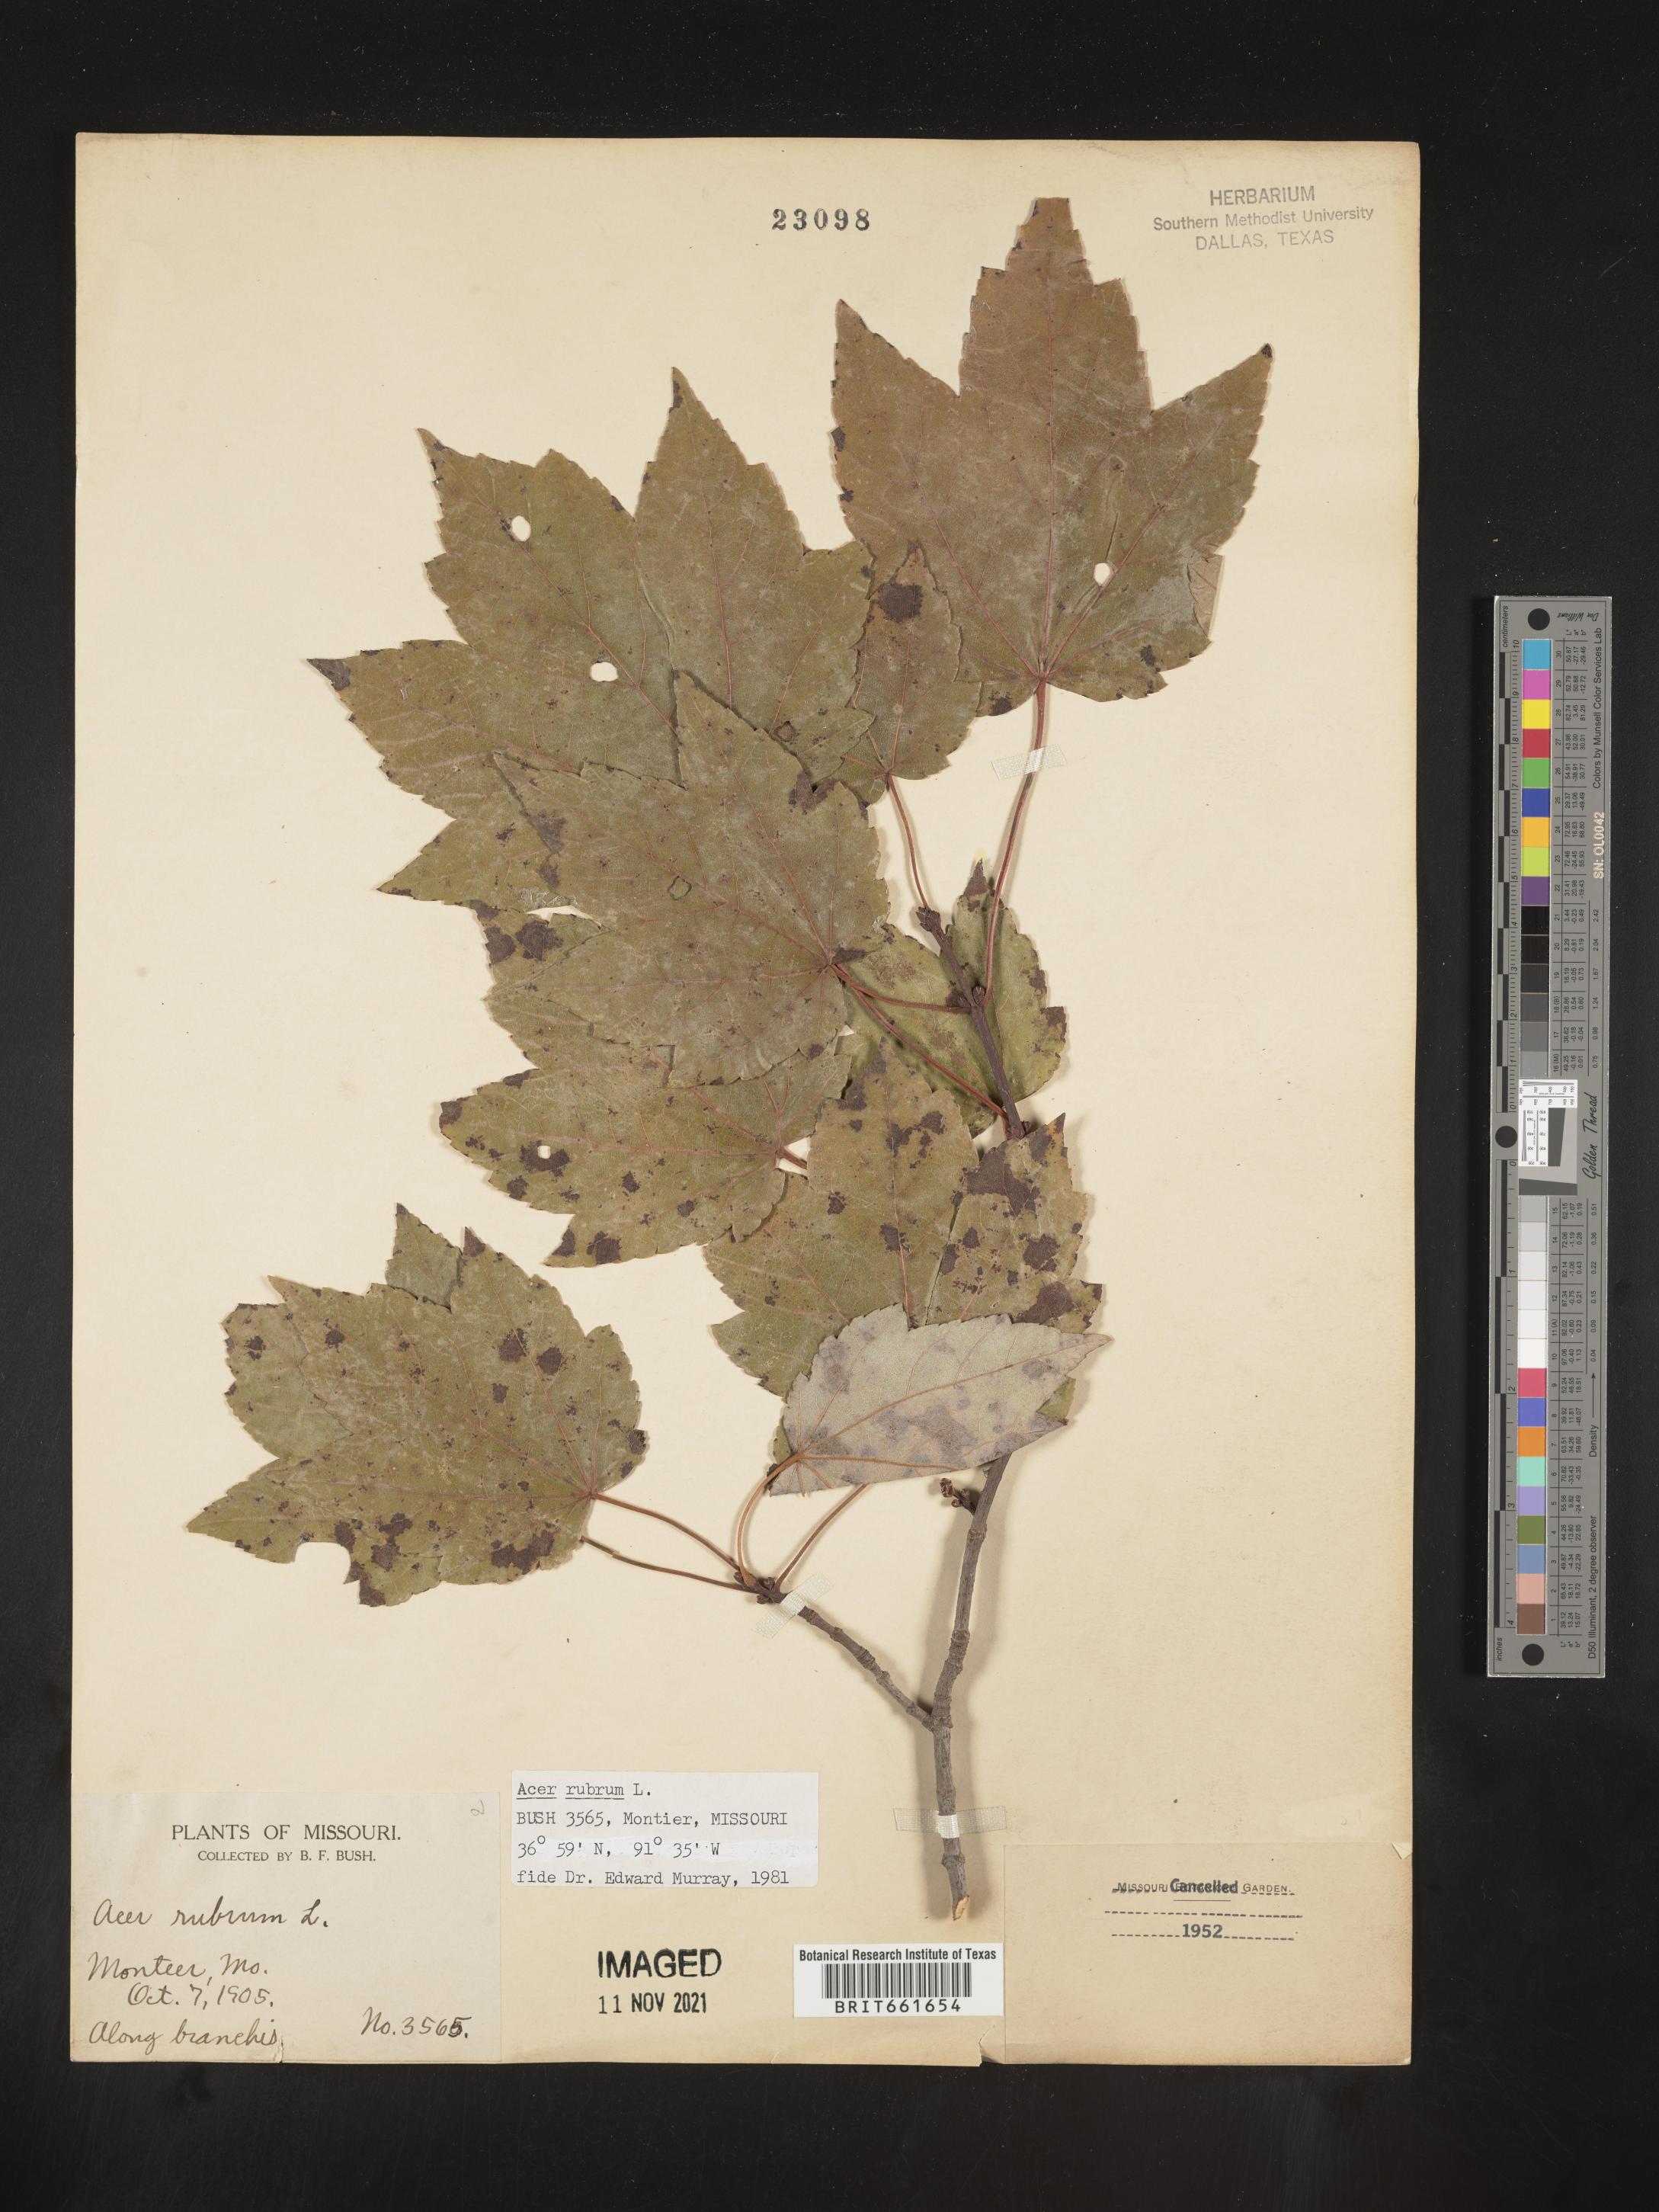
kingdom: Plantae
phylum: Tracheophyta
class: Magnoliopsida
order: Sapindales
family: Sapindaceae
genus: Acer
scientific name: Acer rubrum
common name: Red maple
